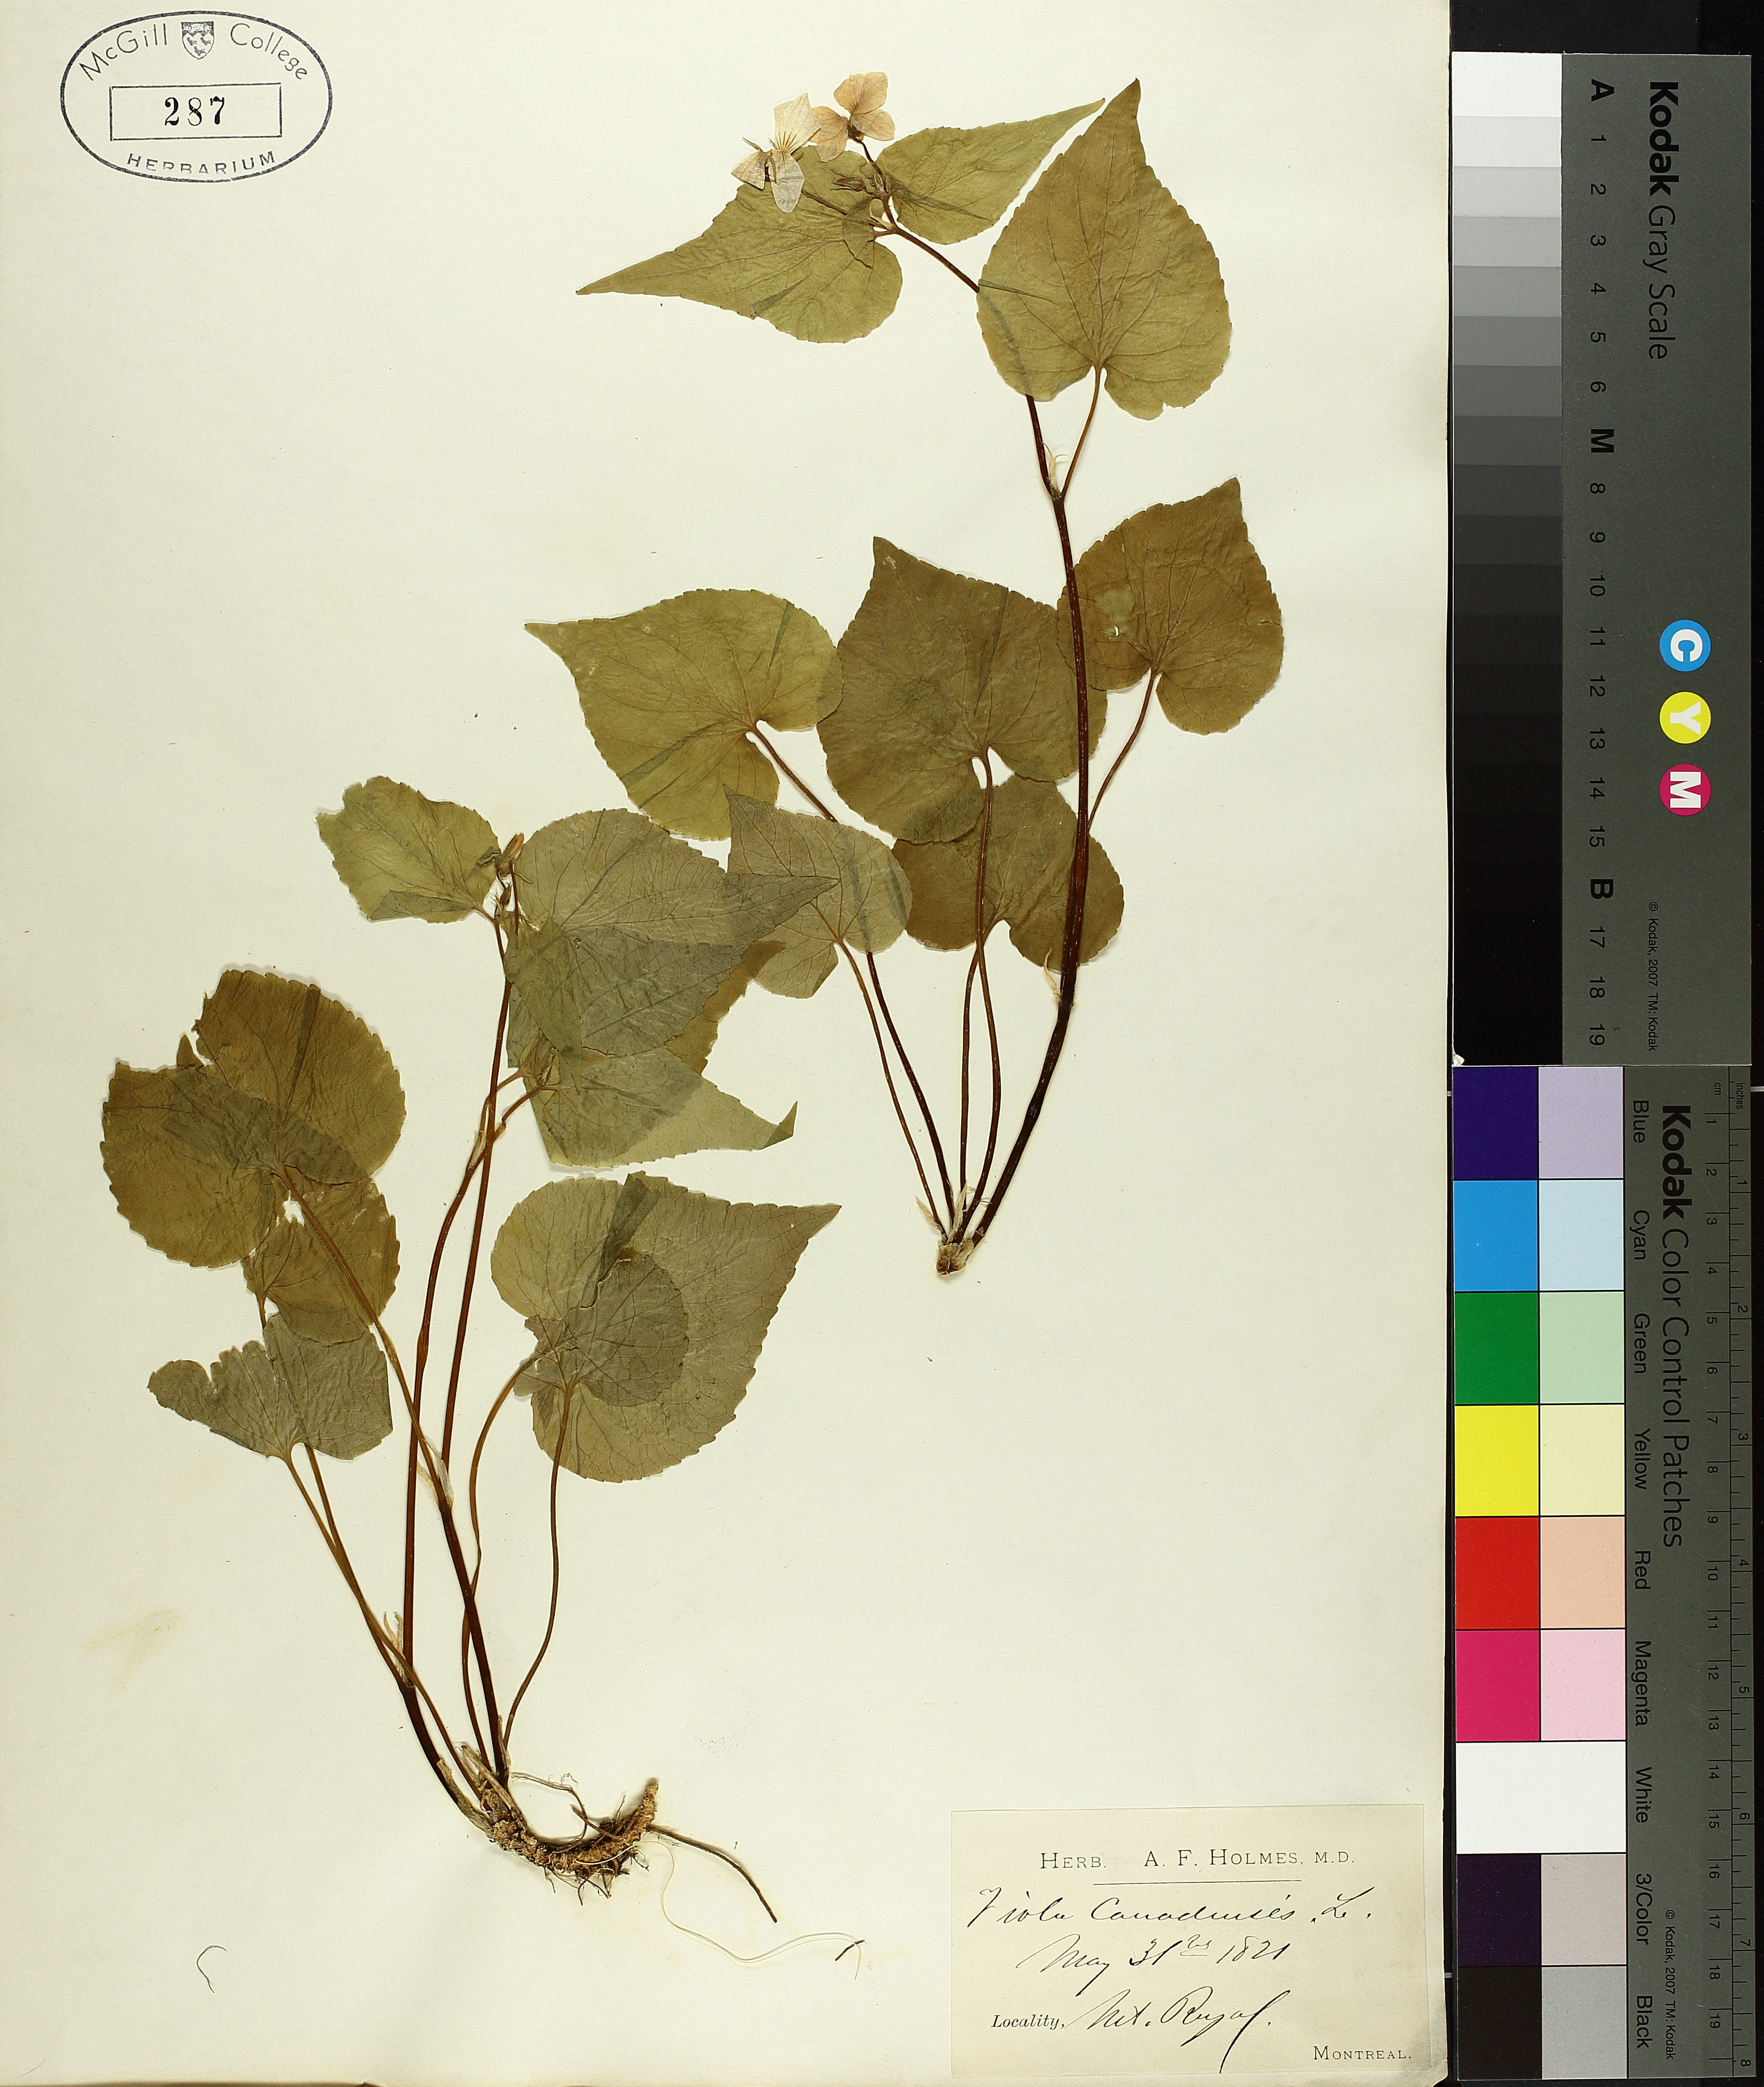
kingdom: Plantae
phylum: Tracheophyta
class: Magnoliopsida
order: Malpighiales
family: Violaceae
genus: Viola
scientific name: Viola canadensis
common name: Canada violet
